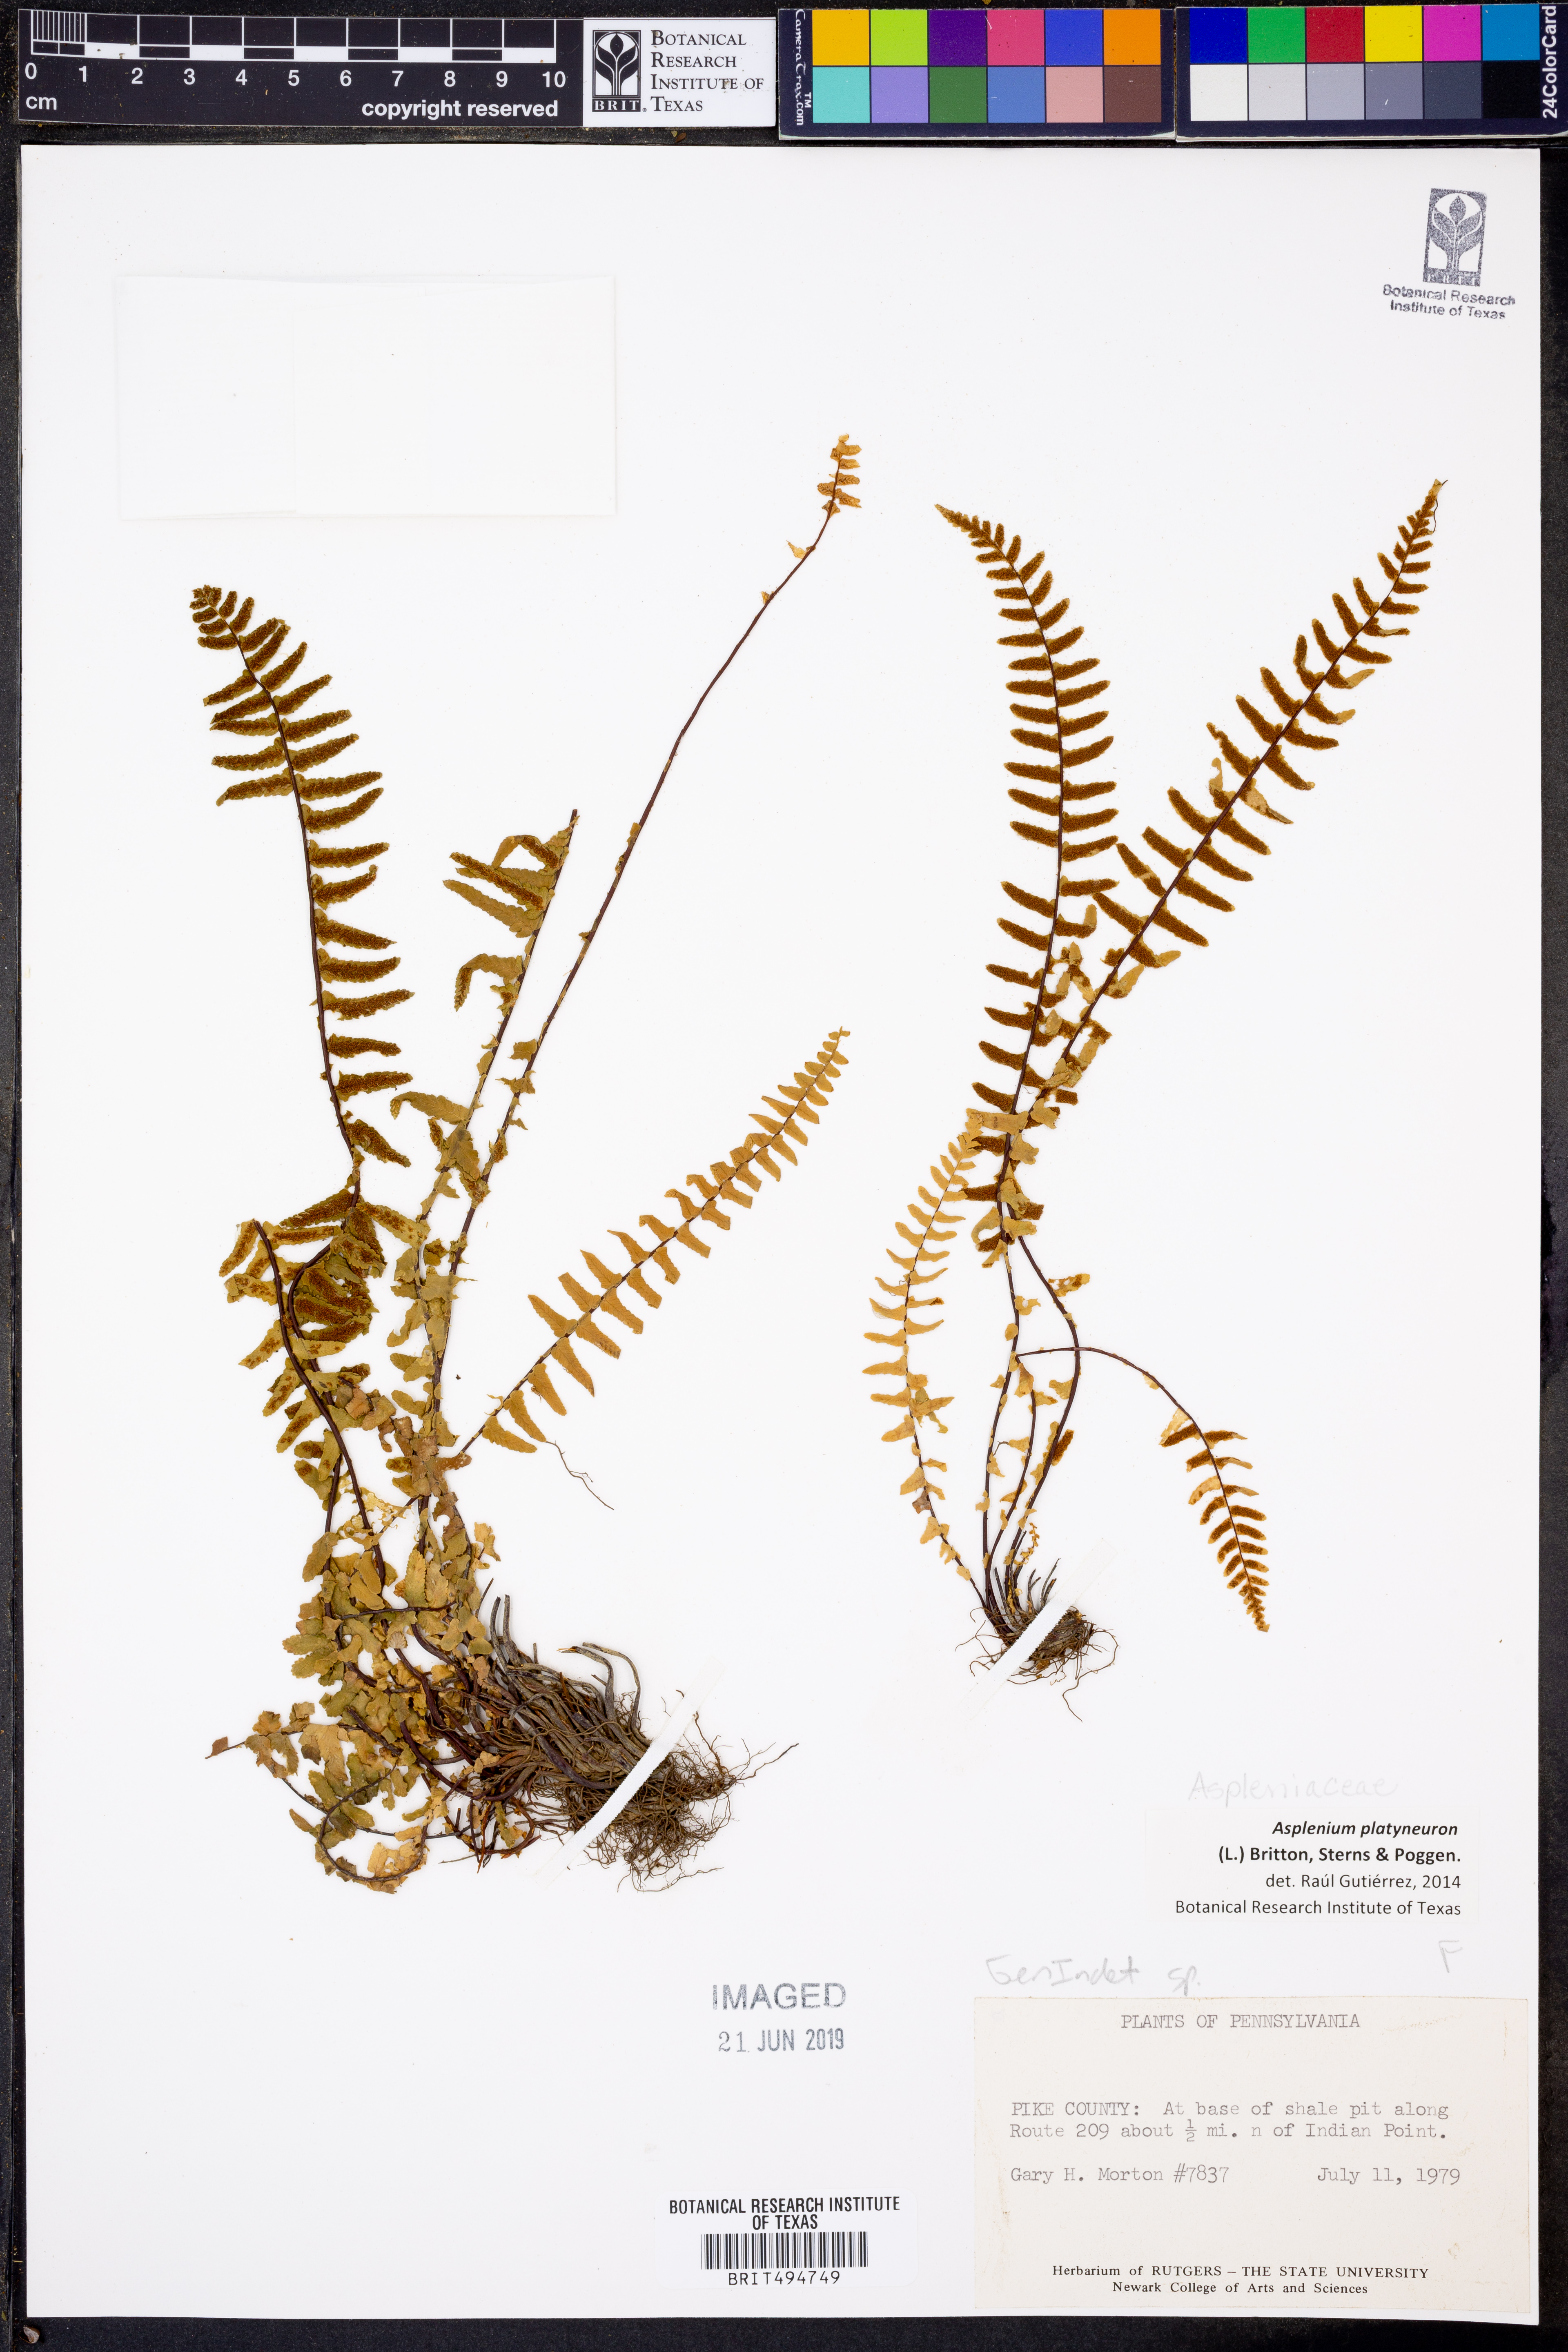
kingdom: Plantae
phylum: Tracheophyta
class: Polypodiopsida
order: Polypodiales
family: Aspleniaceae
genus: Asplenium
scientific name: Asplenium platyneuron
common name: Ebony spleenwort
